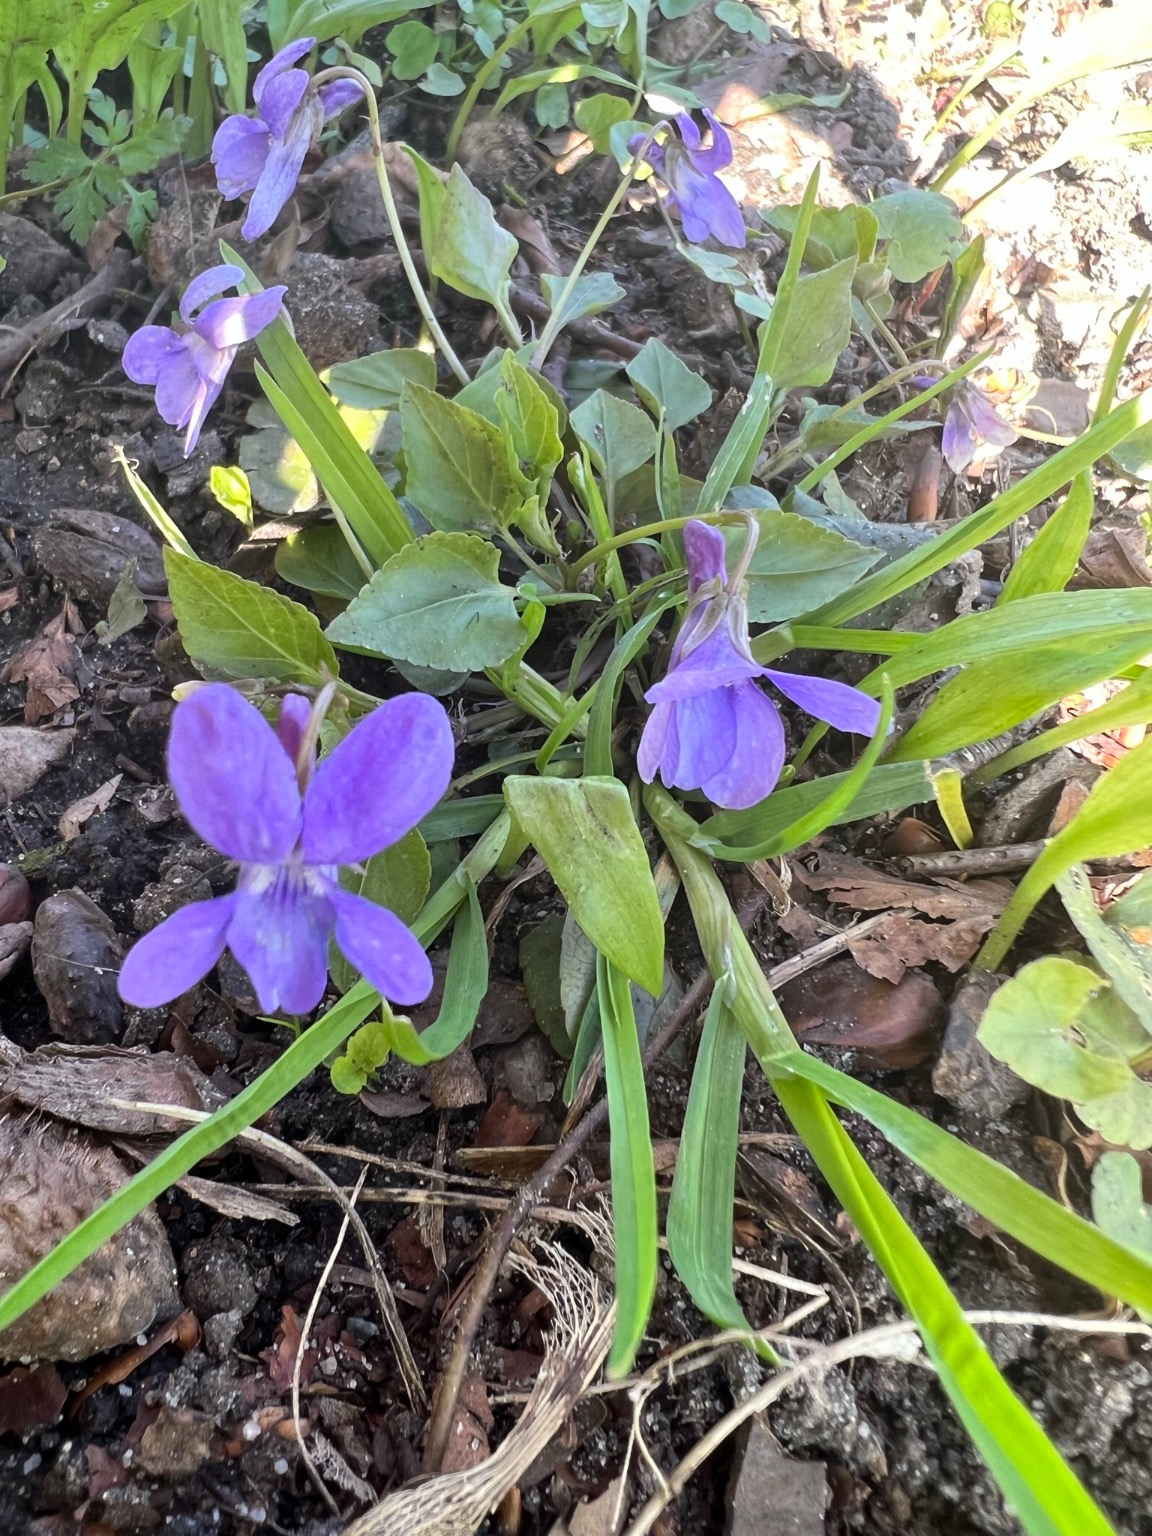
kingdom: Plantae
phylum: Tracheophyta
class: Magnoliopsida
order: Malpighiales
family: Violaceae
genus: Viola
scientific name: Viola reichenbachiana
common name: Skov-viol
